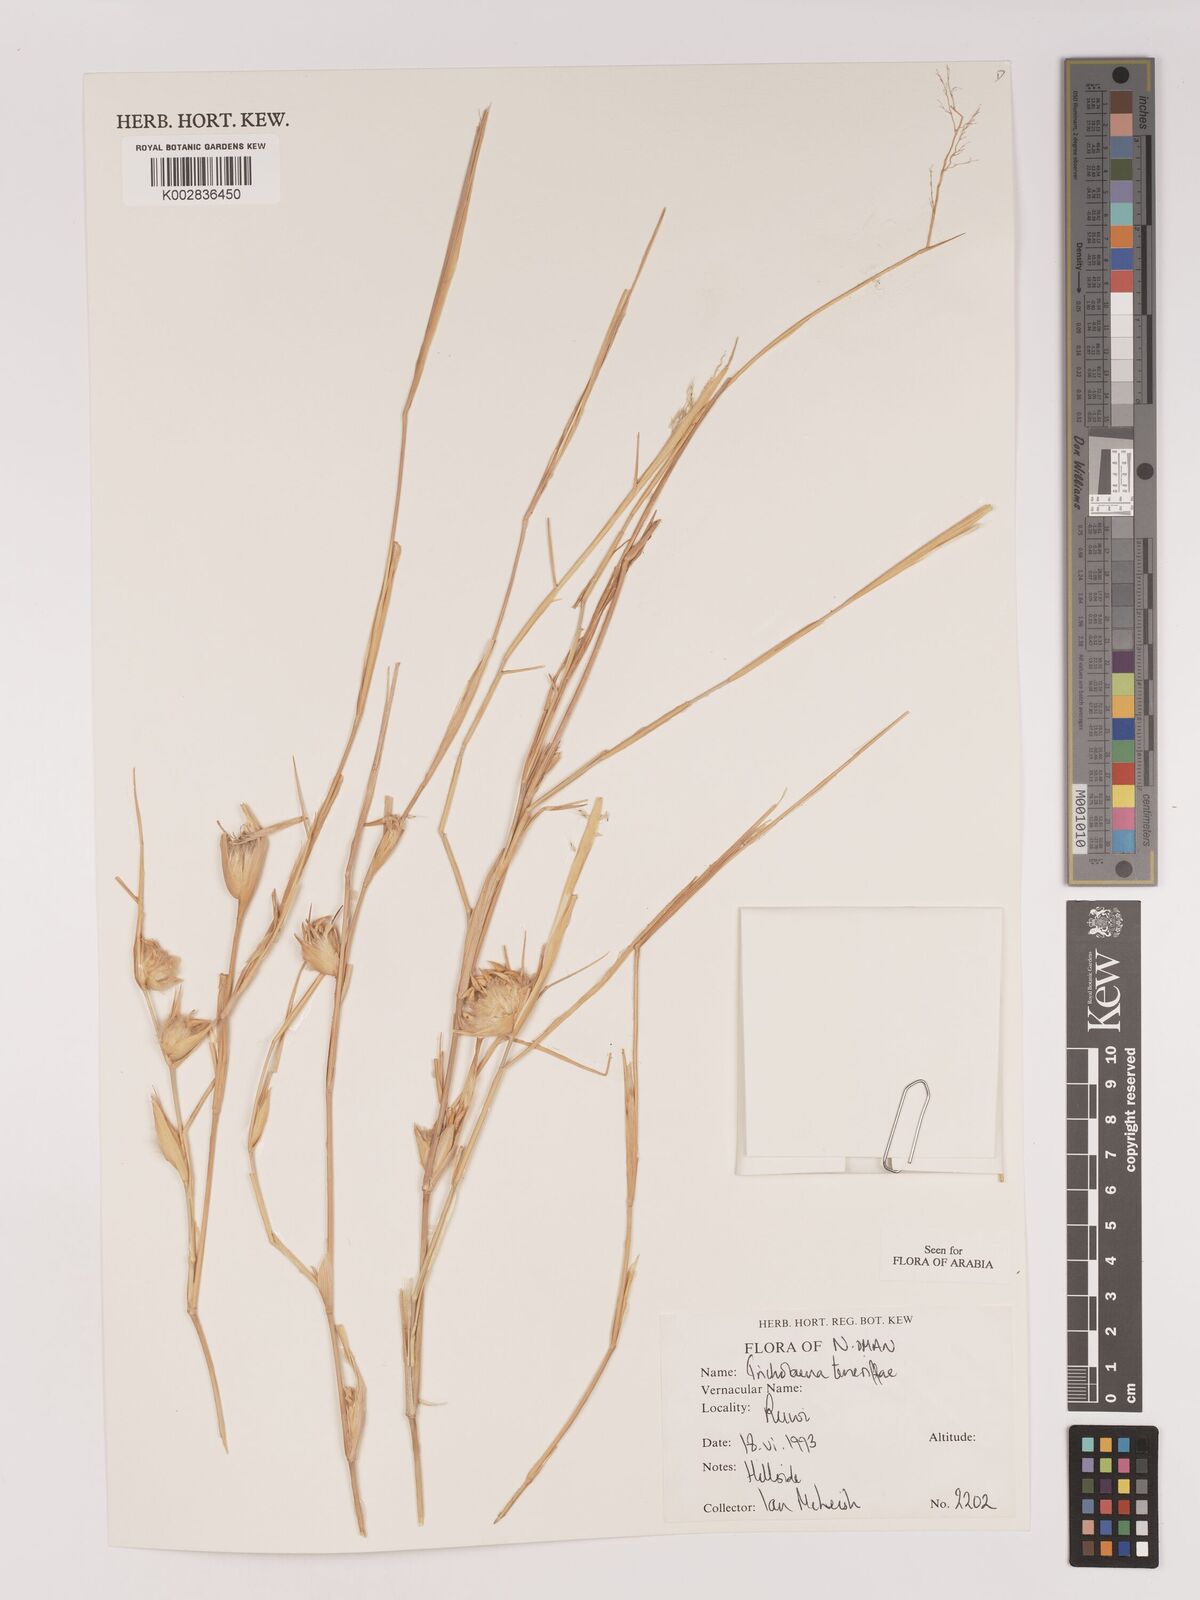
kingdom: Plantae
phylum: Tracheophyta
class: Liliopsida
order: Poales
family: Poaceae
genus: Tricholaena
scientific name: Tricholaena teneriffae
